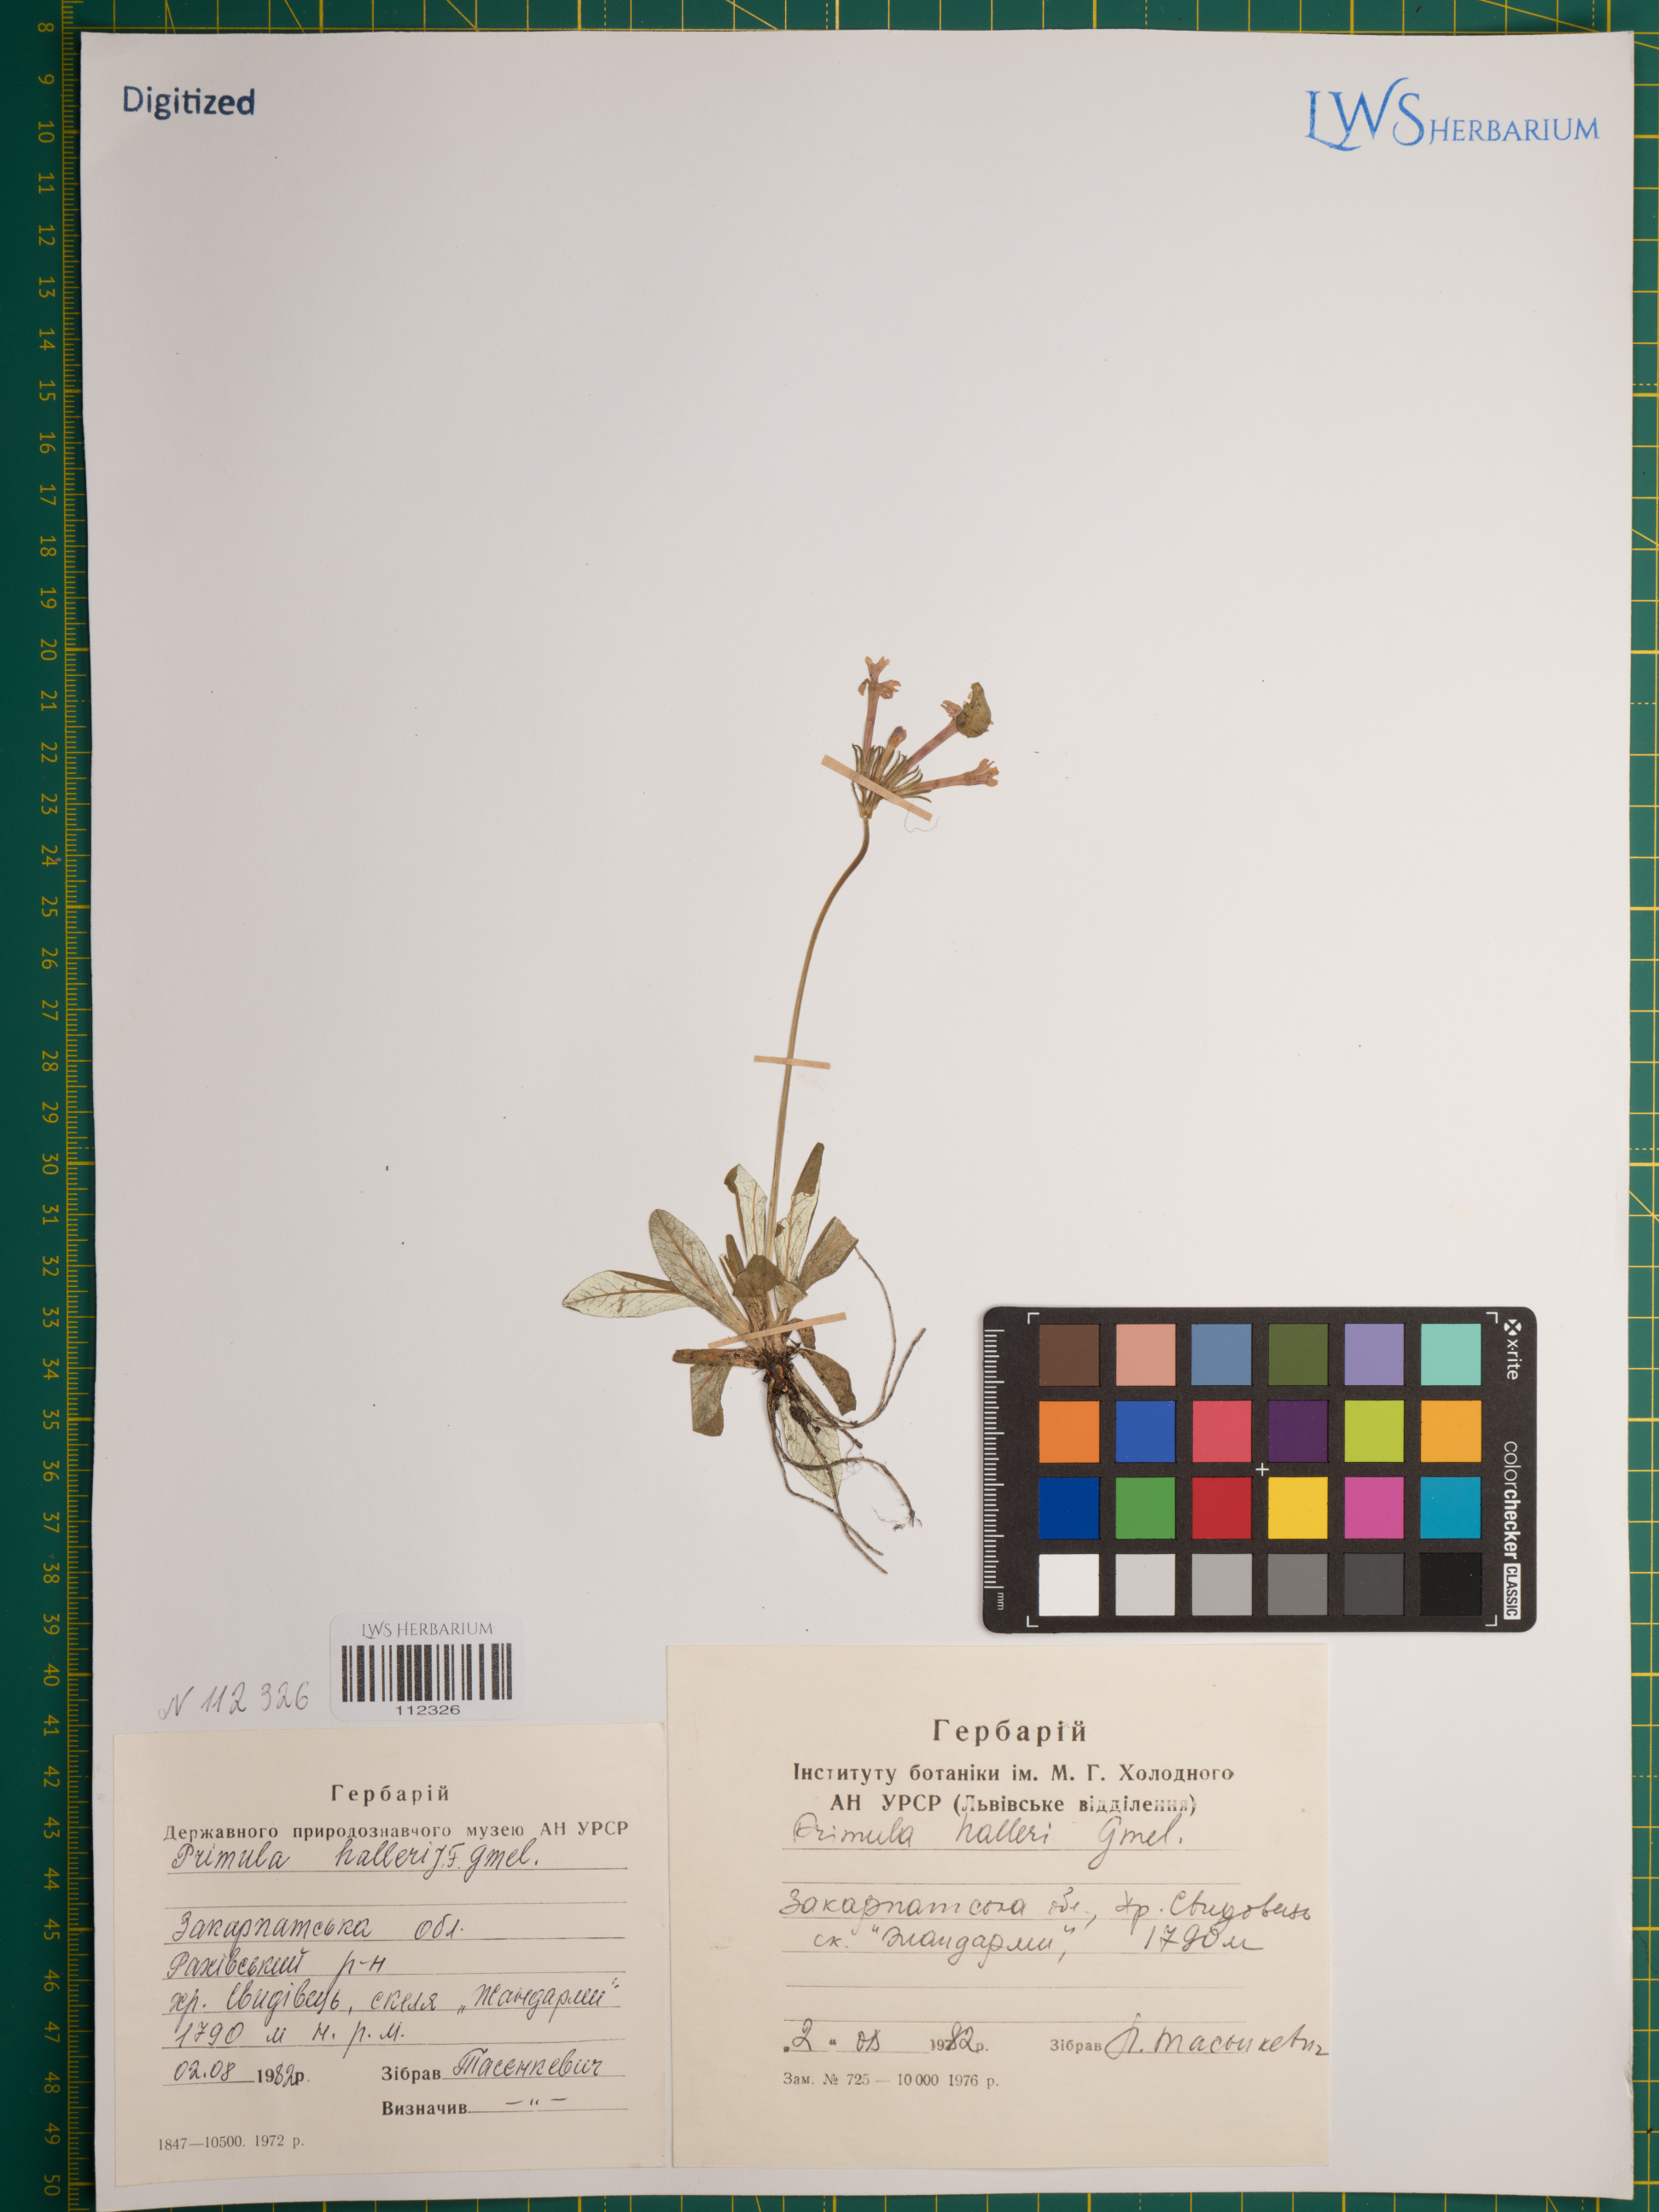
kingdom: Plantae
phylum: Tracheophyta
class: Magnoliopsida
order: Ericales
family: Primulaceae
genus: Primula
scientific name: Primula halleri
